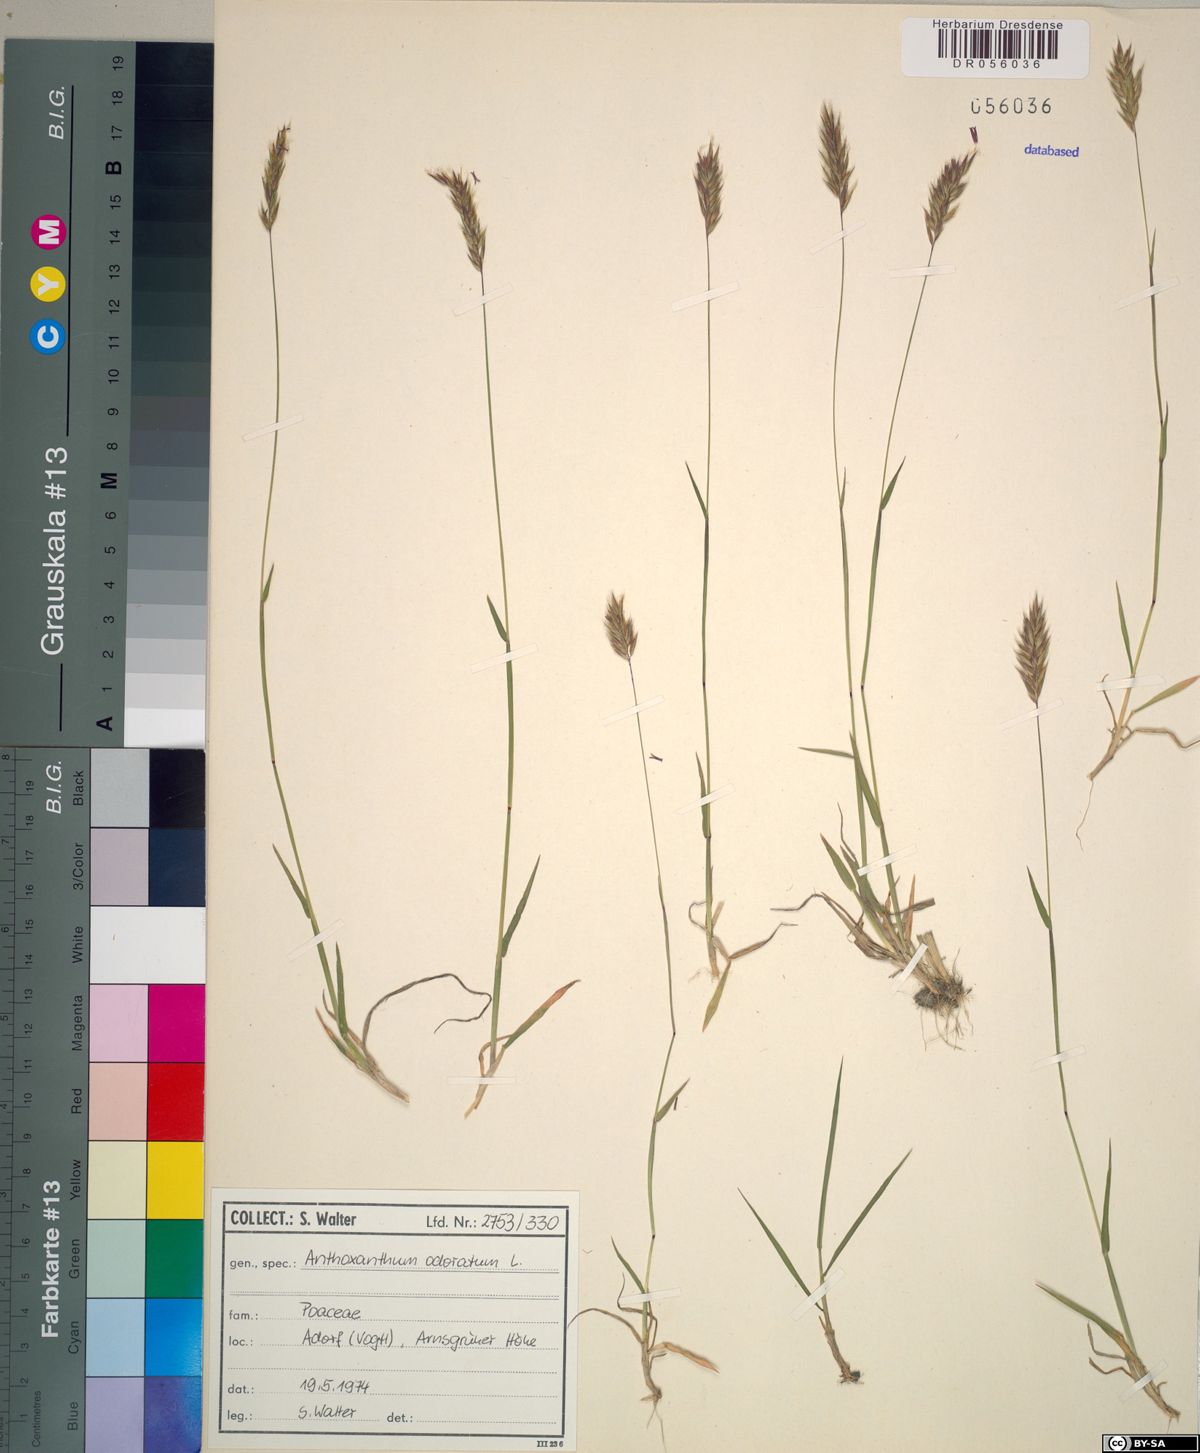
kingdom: Plantae
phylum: Tracheophyta
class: Liliopsida
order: Poales
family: Poaceae
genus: Anthoxanthum
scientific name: Anthoxanthum odoratum
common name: Sweet vernalgrass
